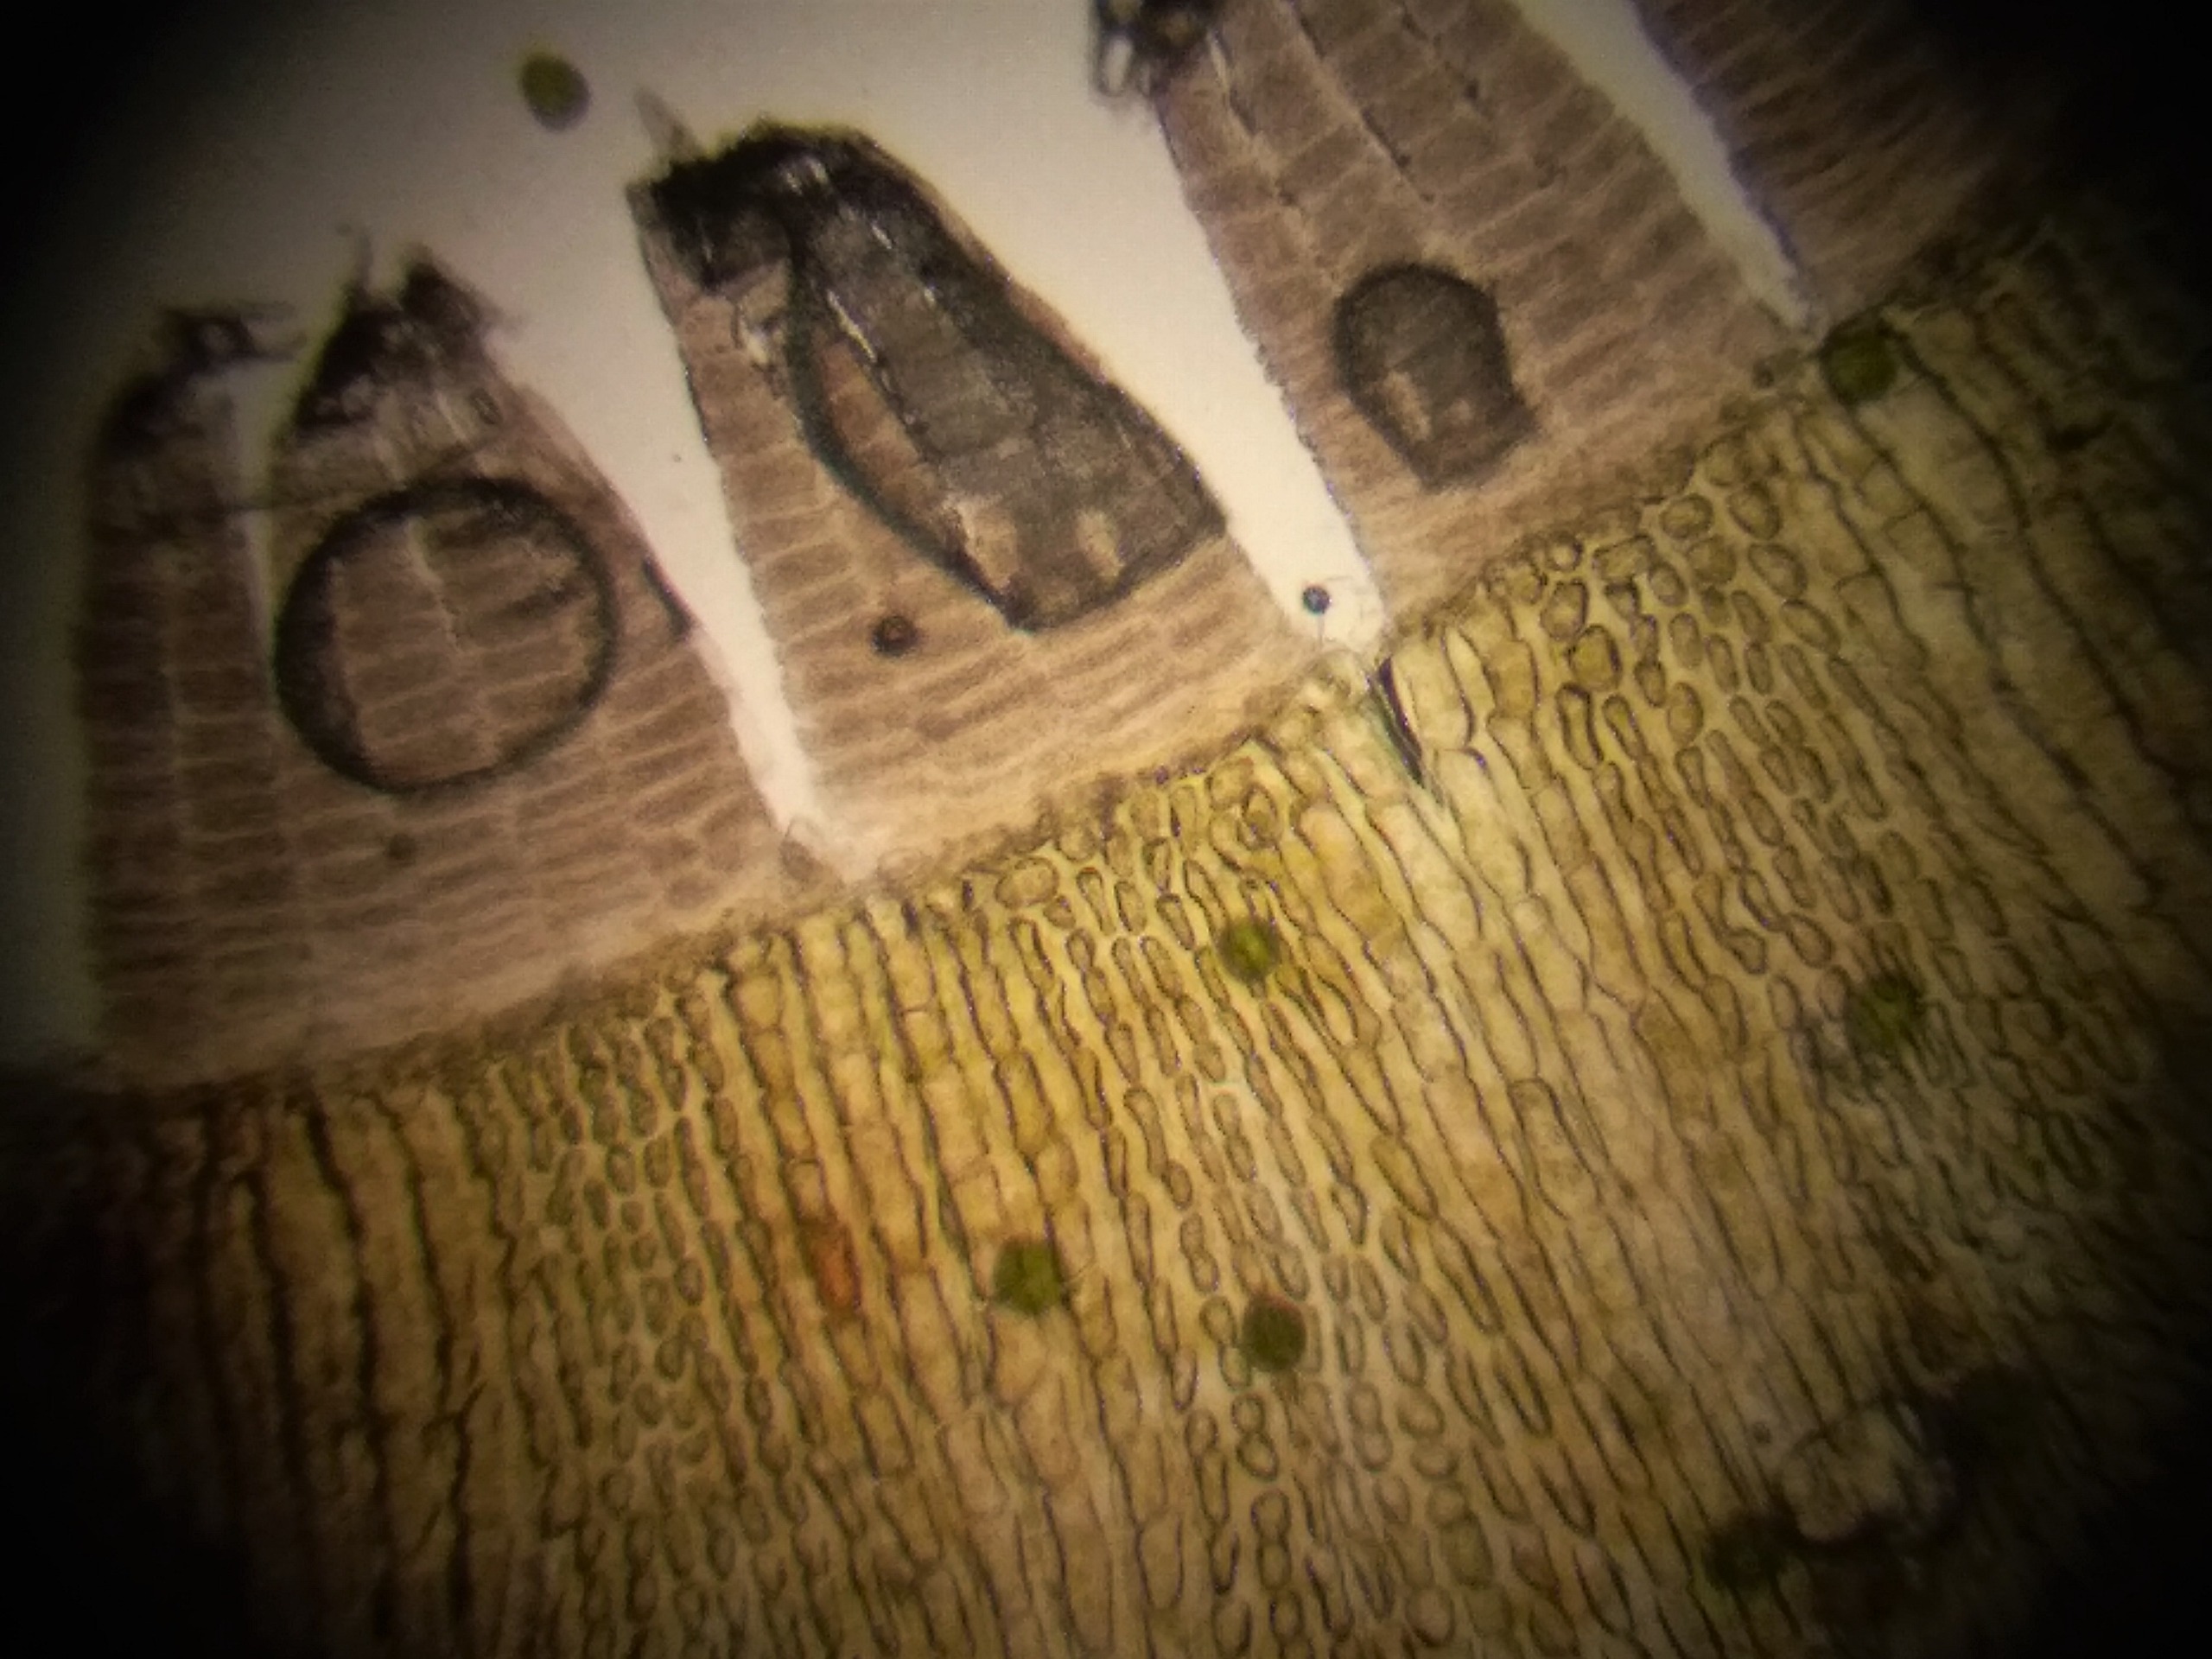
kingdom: Plantae
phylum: Bryophyta
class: Bryopsida
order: Orthotrichales
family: Orthotrichaceae
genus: Ulota
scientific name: Ulota bruchii
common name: Bruchs låddenhætte
